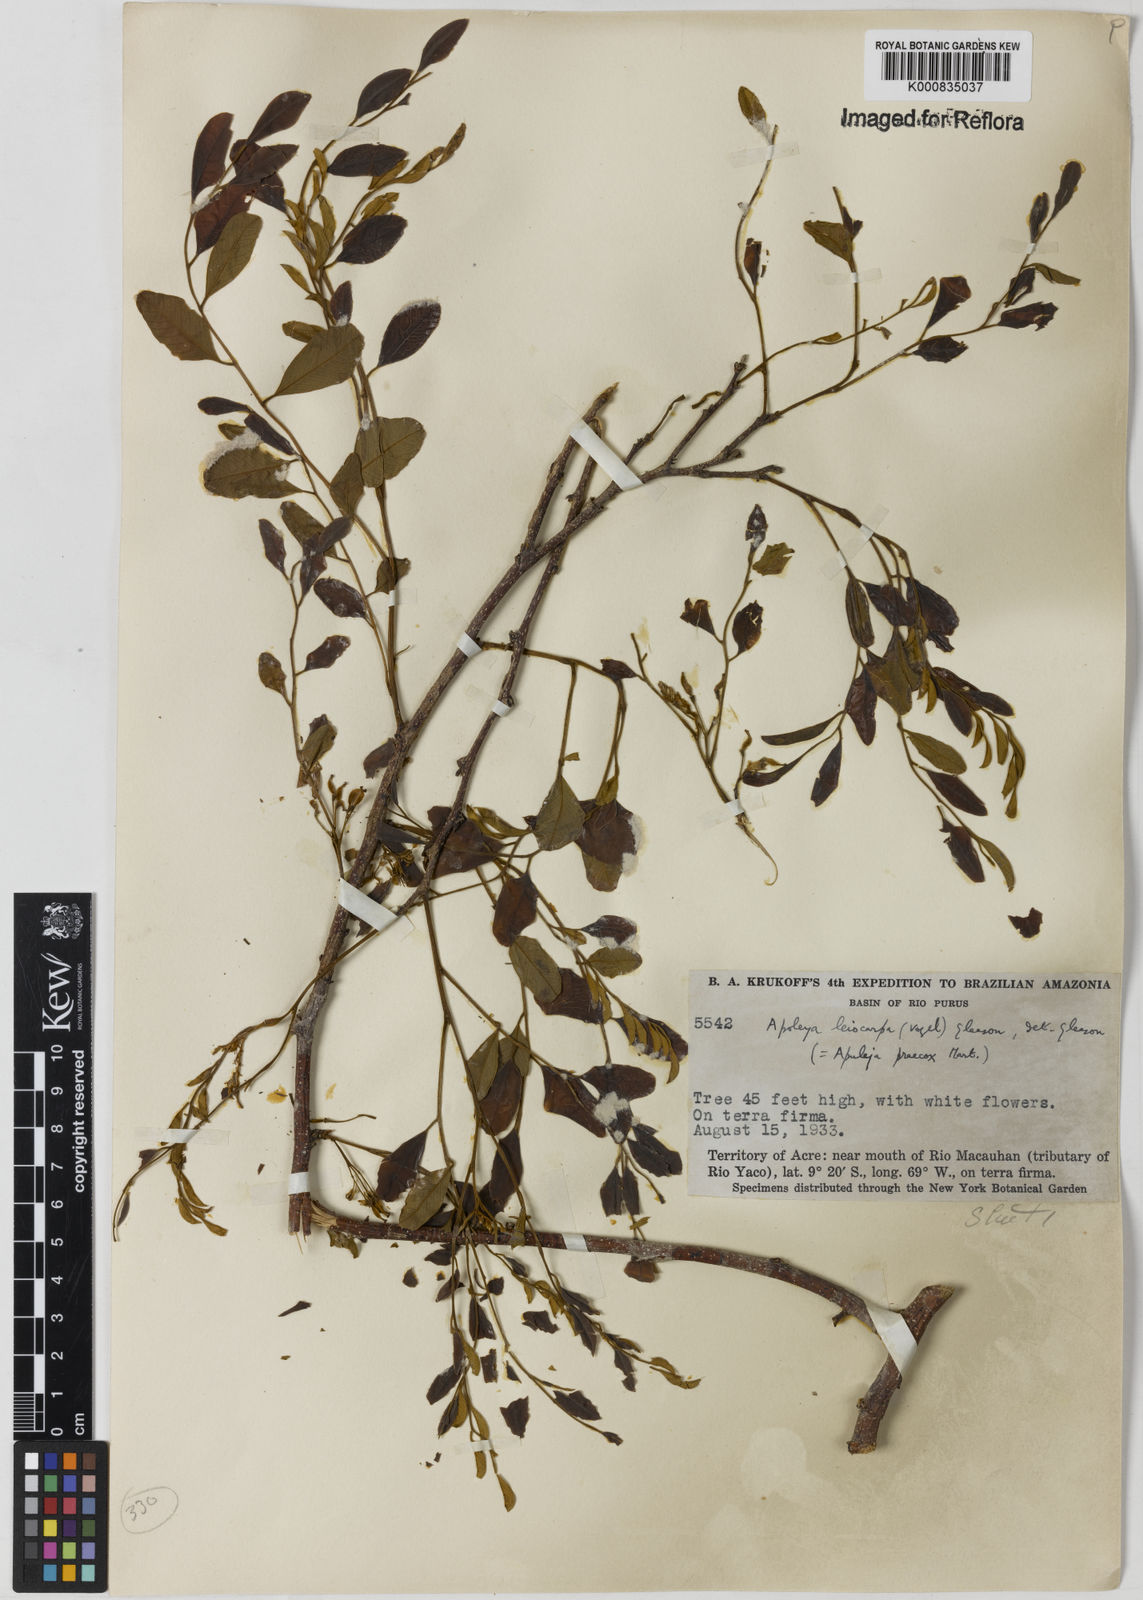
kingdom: Plantae
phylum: Tracheophyta
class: Magnoliopsida
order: Fabales
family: Fabaceae
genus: Apuleia
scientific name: Apuleia leiocarpa
